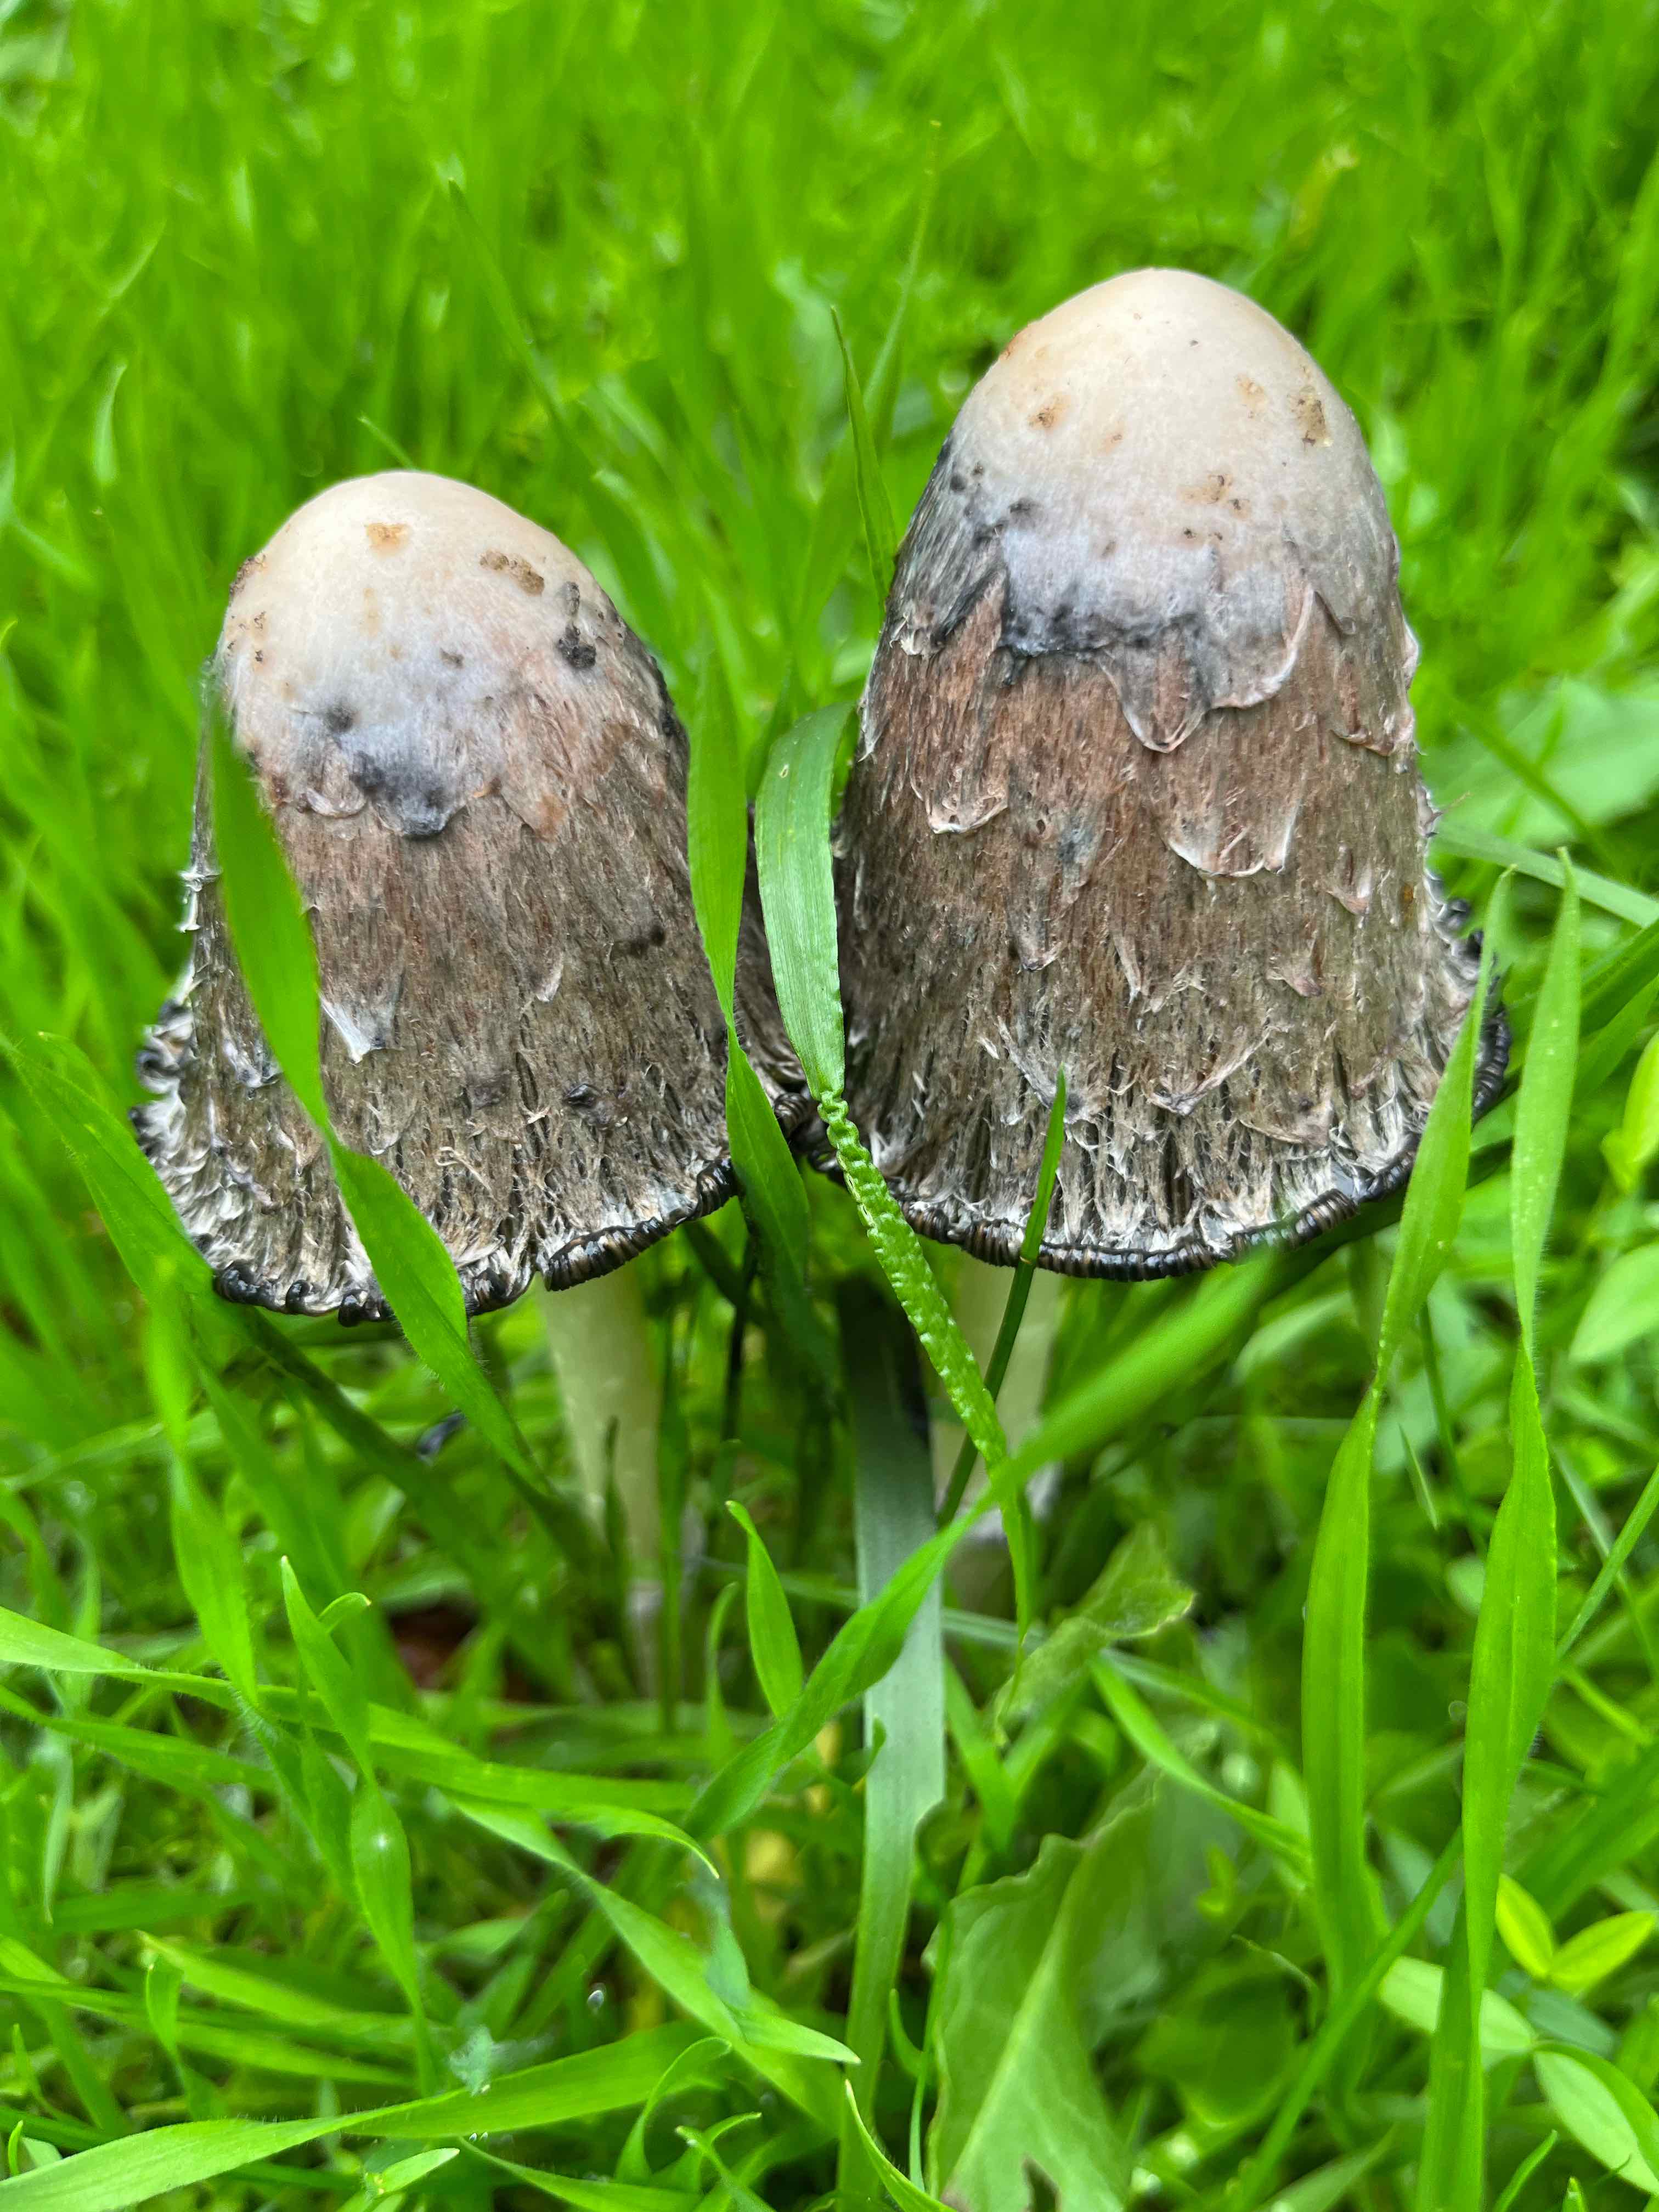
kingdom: Fungi
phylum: Basidiomycota
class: Agaricomycetes
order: Agaricales
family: Agaricaceae
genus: Coprinus
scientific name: Coprinus comatus
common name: stor parykhat
